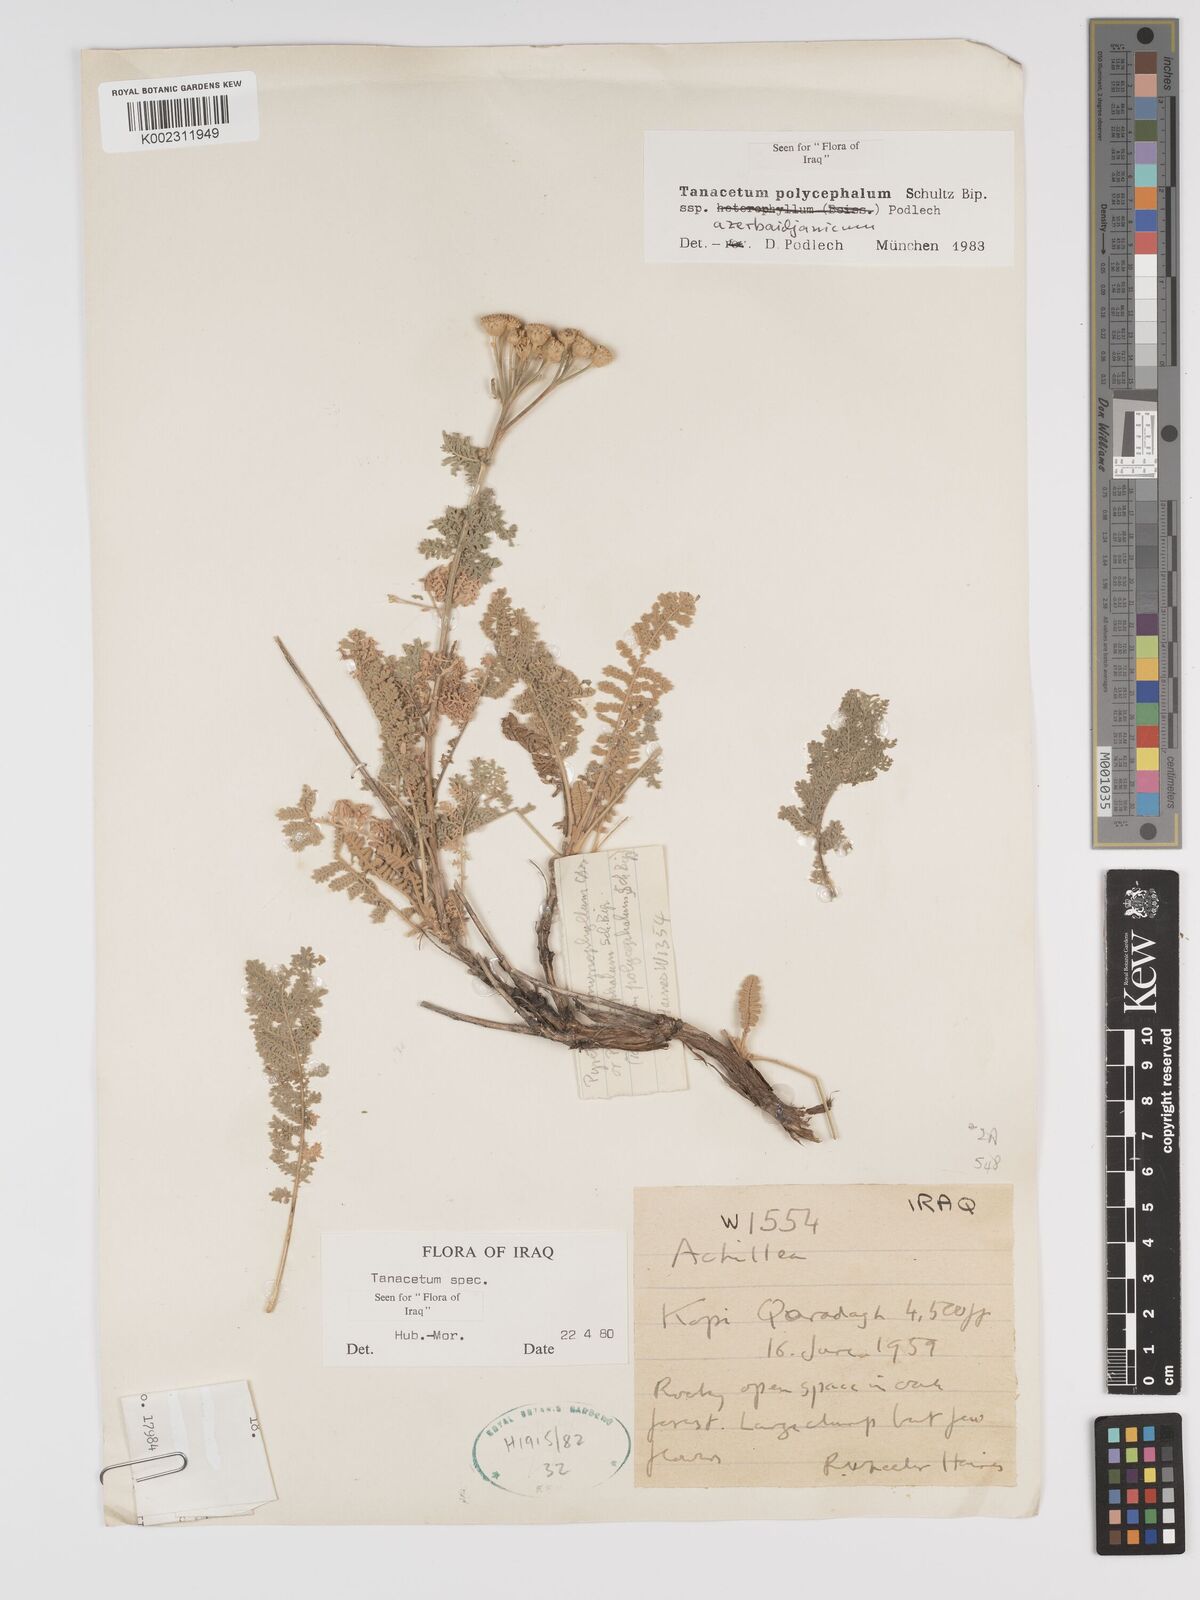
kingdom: Plantae
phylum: Tracheophyta
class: Magnoliopsida
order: Asterales
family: Asteraceae
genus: Tanacetum
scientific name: Tanacetum polycephalum
